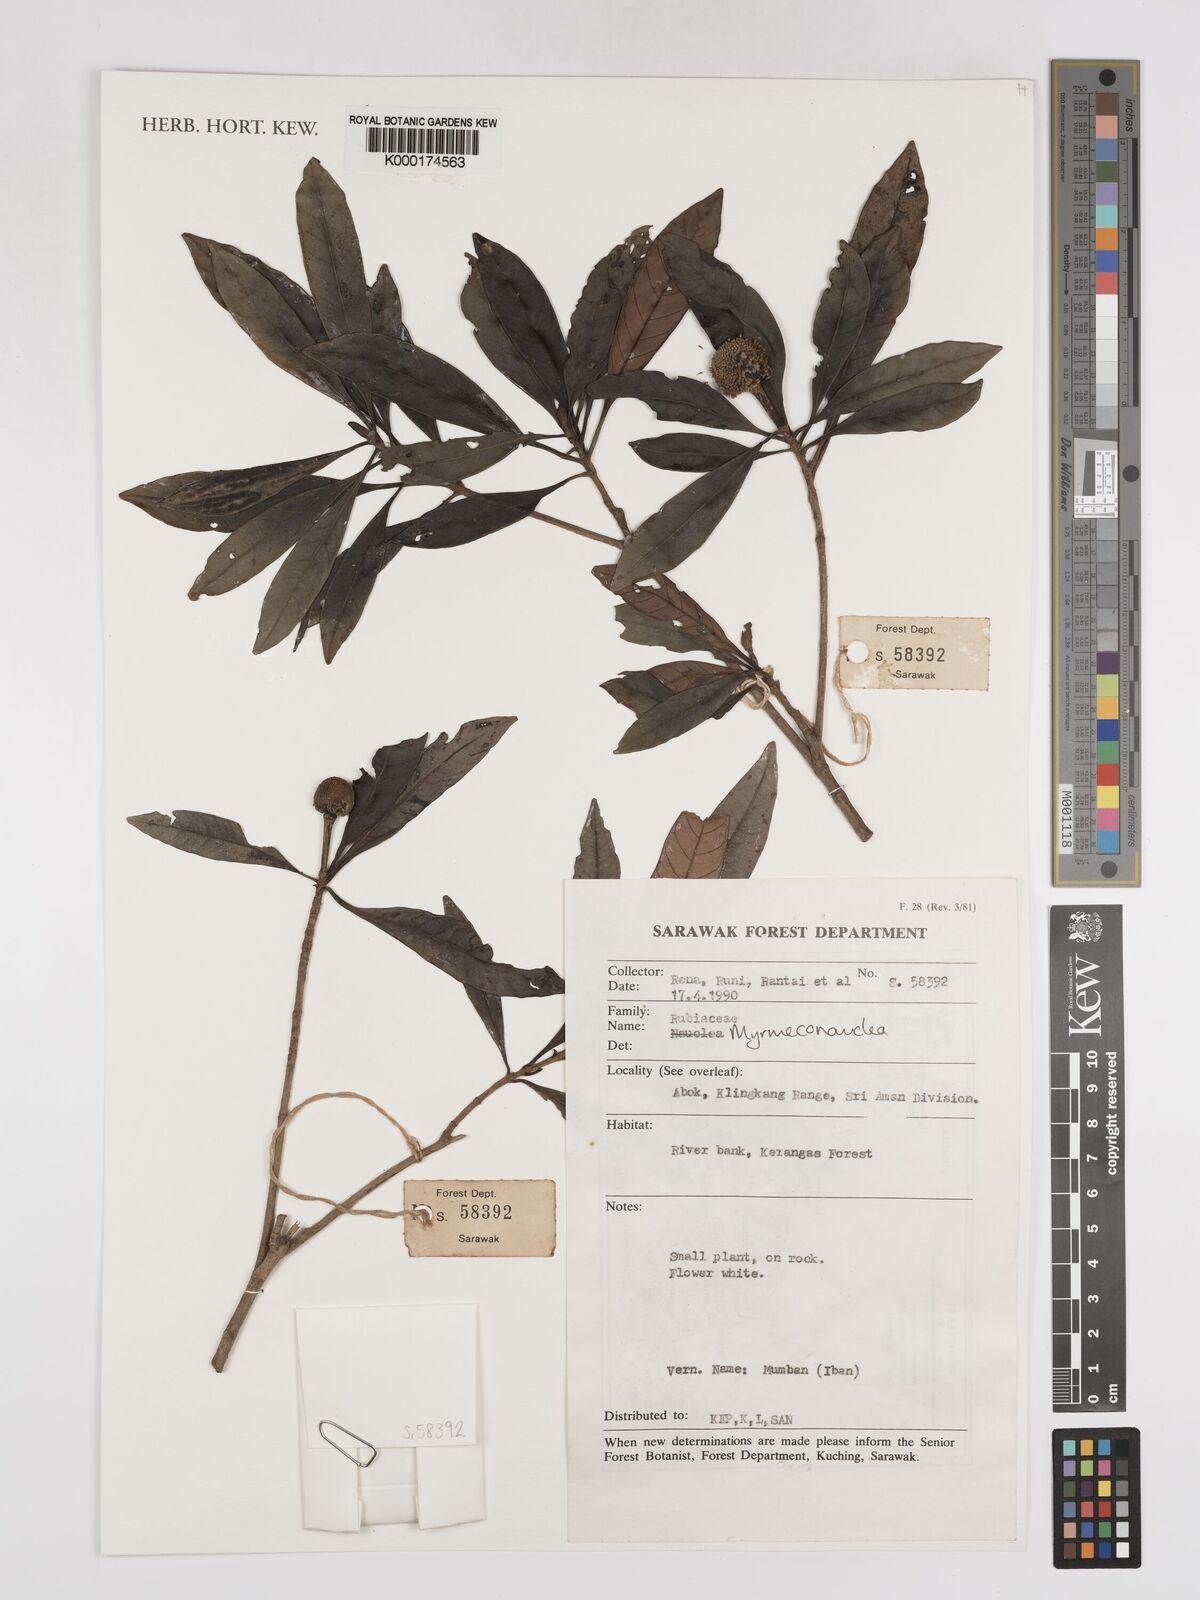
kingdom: Plantae
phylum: Tracheophyta
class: Magnoliopsida
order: Gentianales
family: Rubiaceae
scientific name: Rubiaceae
